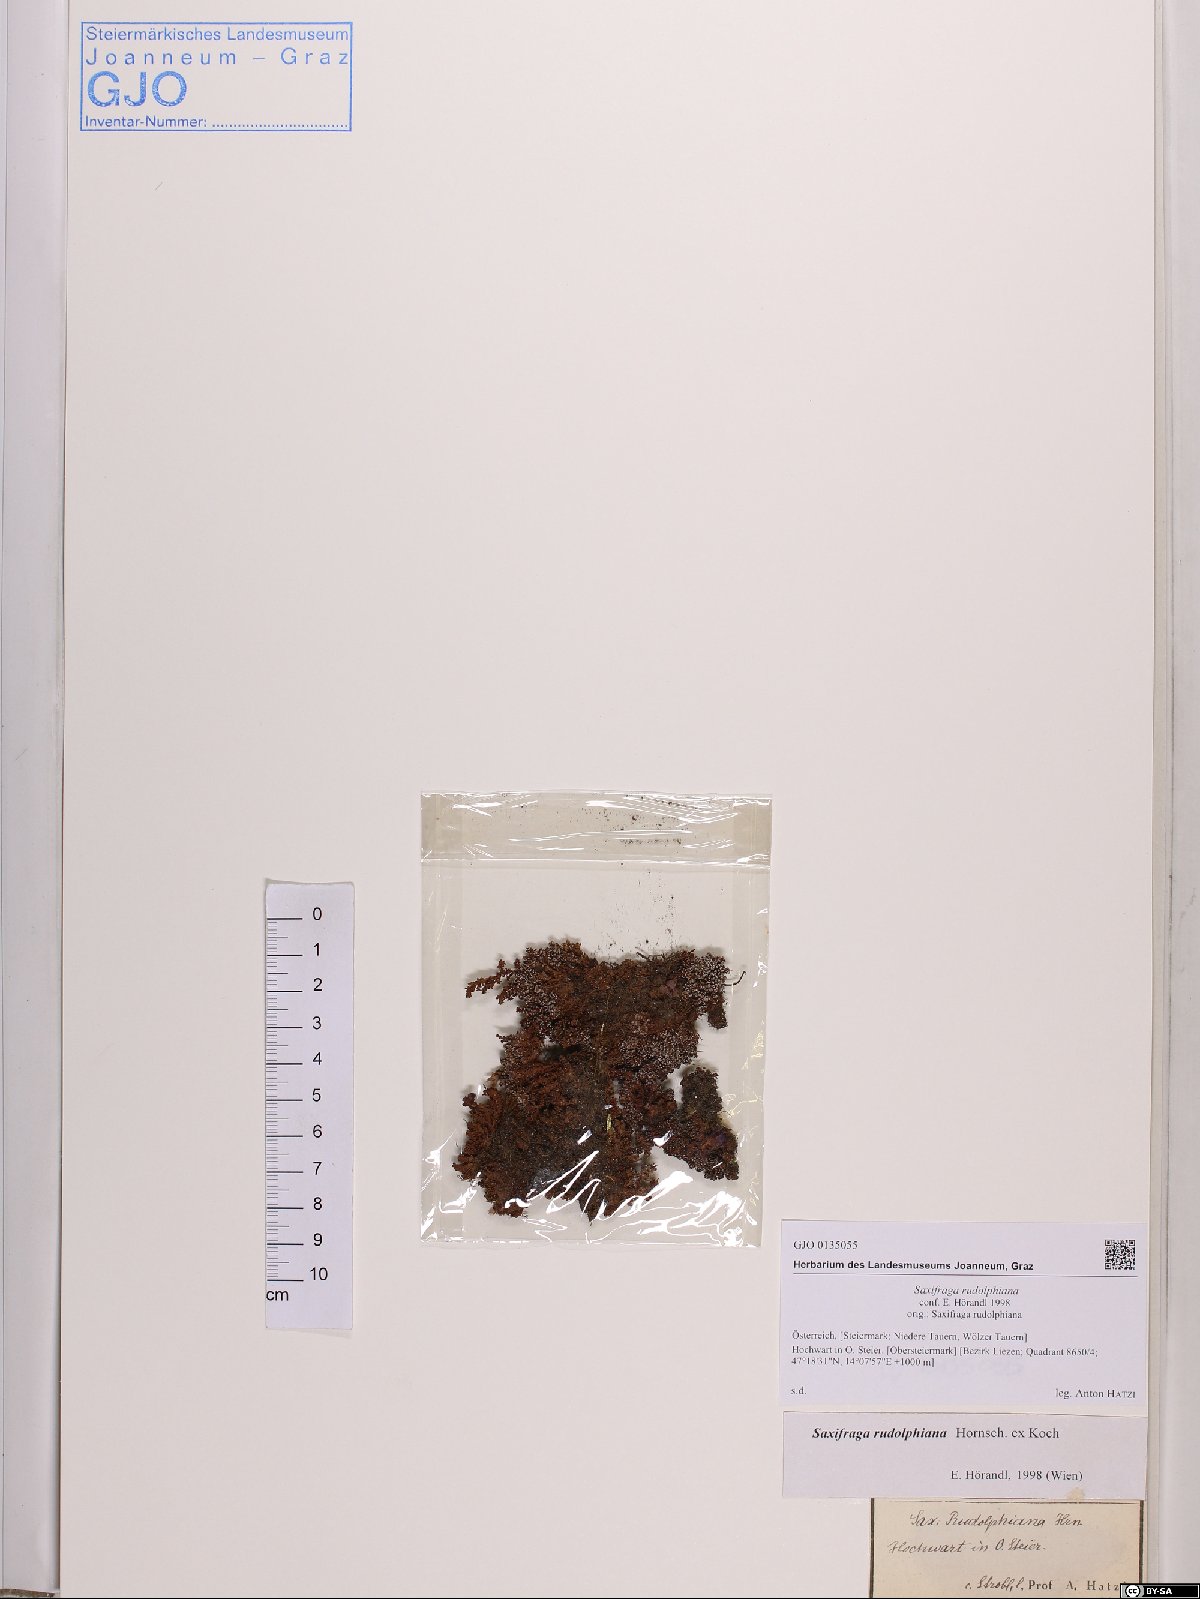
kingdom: Plantae
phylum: Tracheophyta
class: Magnoliopsida
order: Saxifragales
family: Saxifragaceae
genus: Saxifraga
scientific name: Saxifraga oppositifolia
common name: Purple saxifrage
